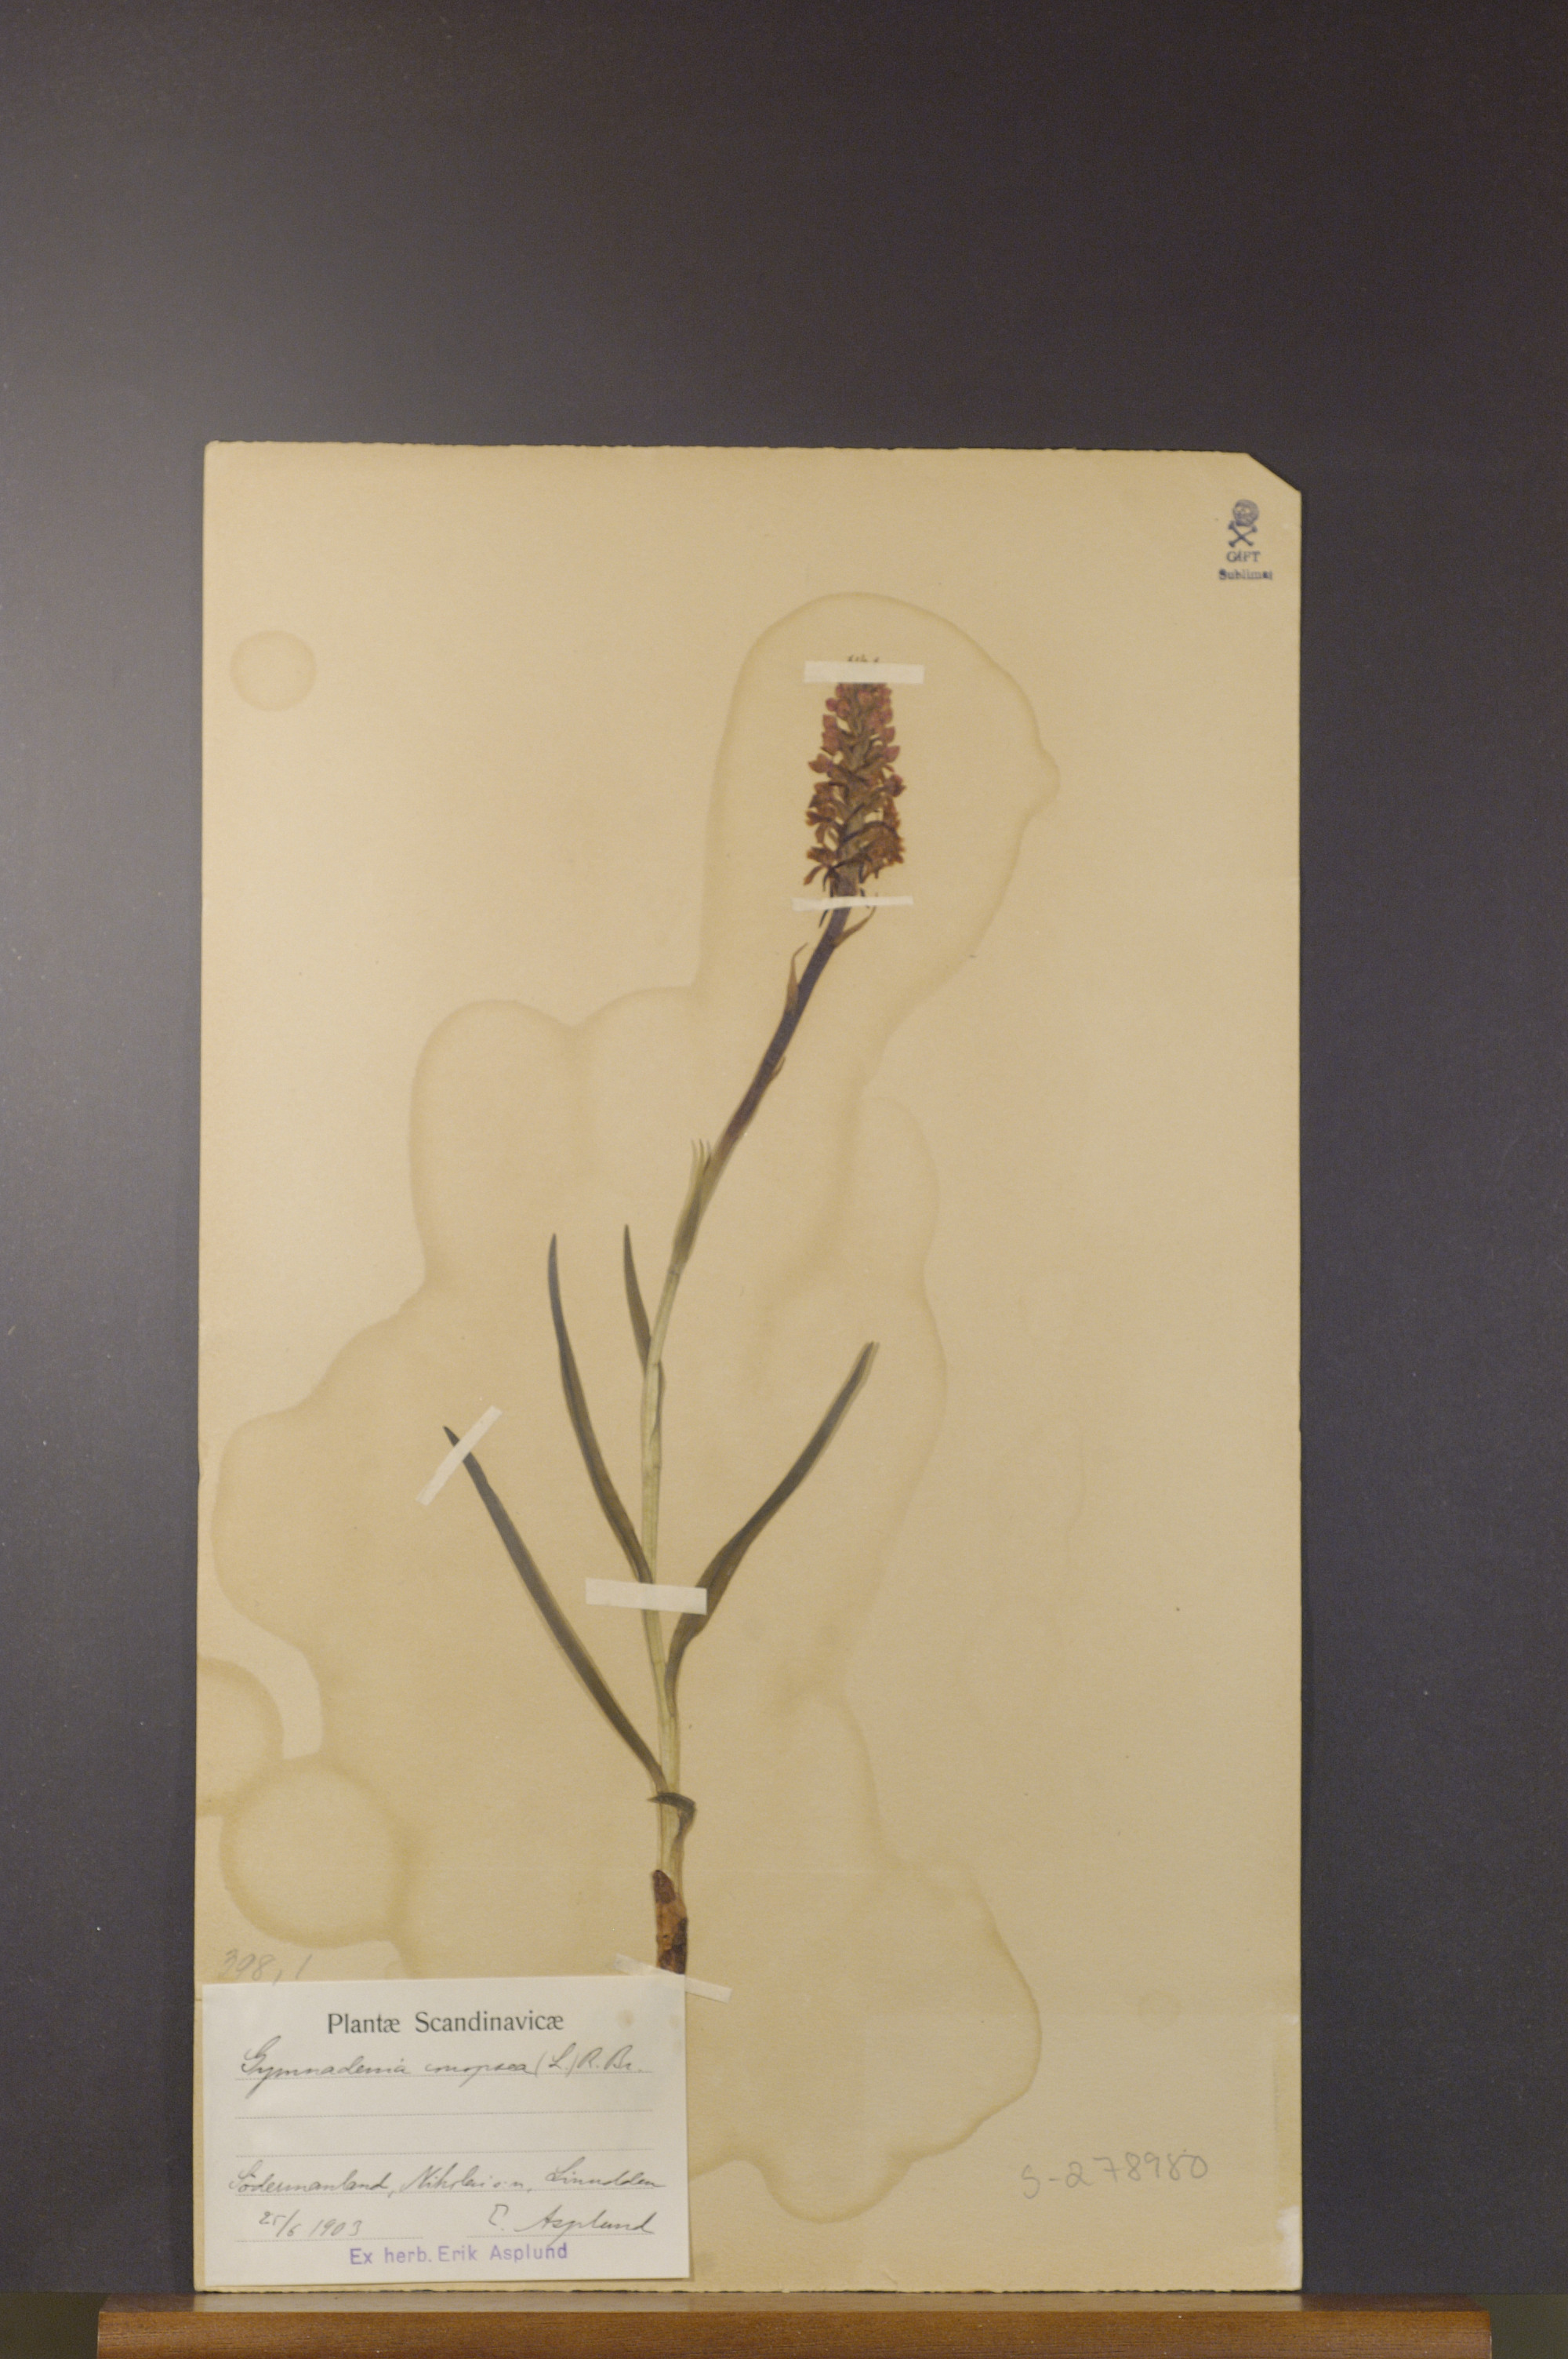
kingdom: Plantae
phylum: Tracheophyta
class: Liliopsida
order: Asparagales
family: Orchidaceae
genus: Gymnadenia
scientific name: Gymnadenia conopsea
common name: Fragrant orchid
